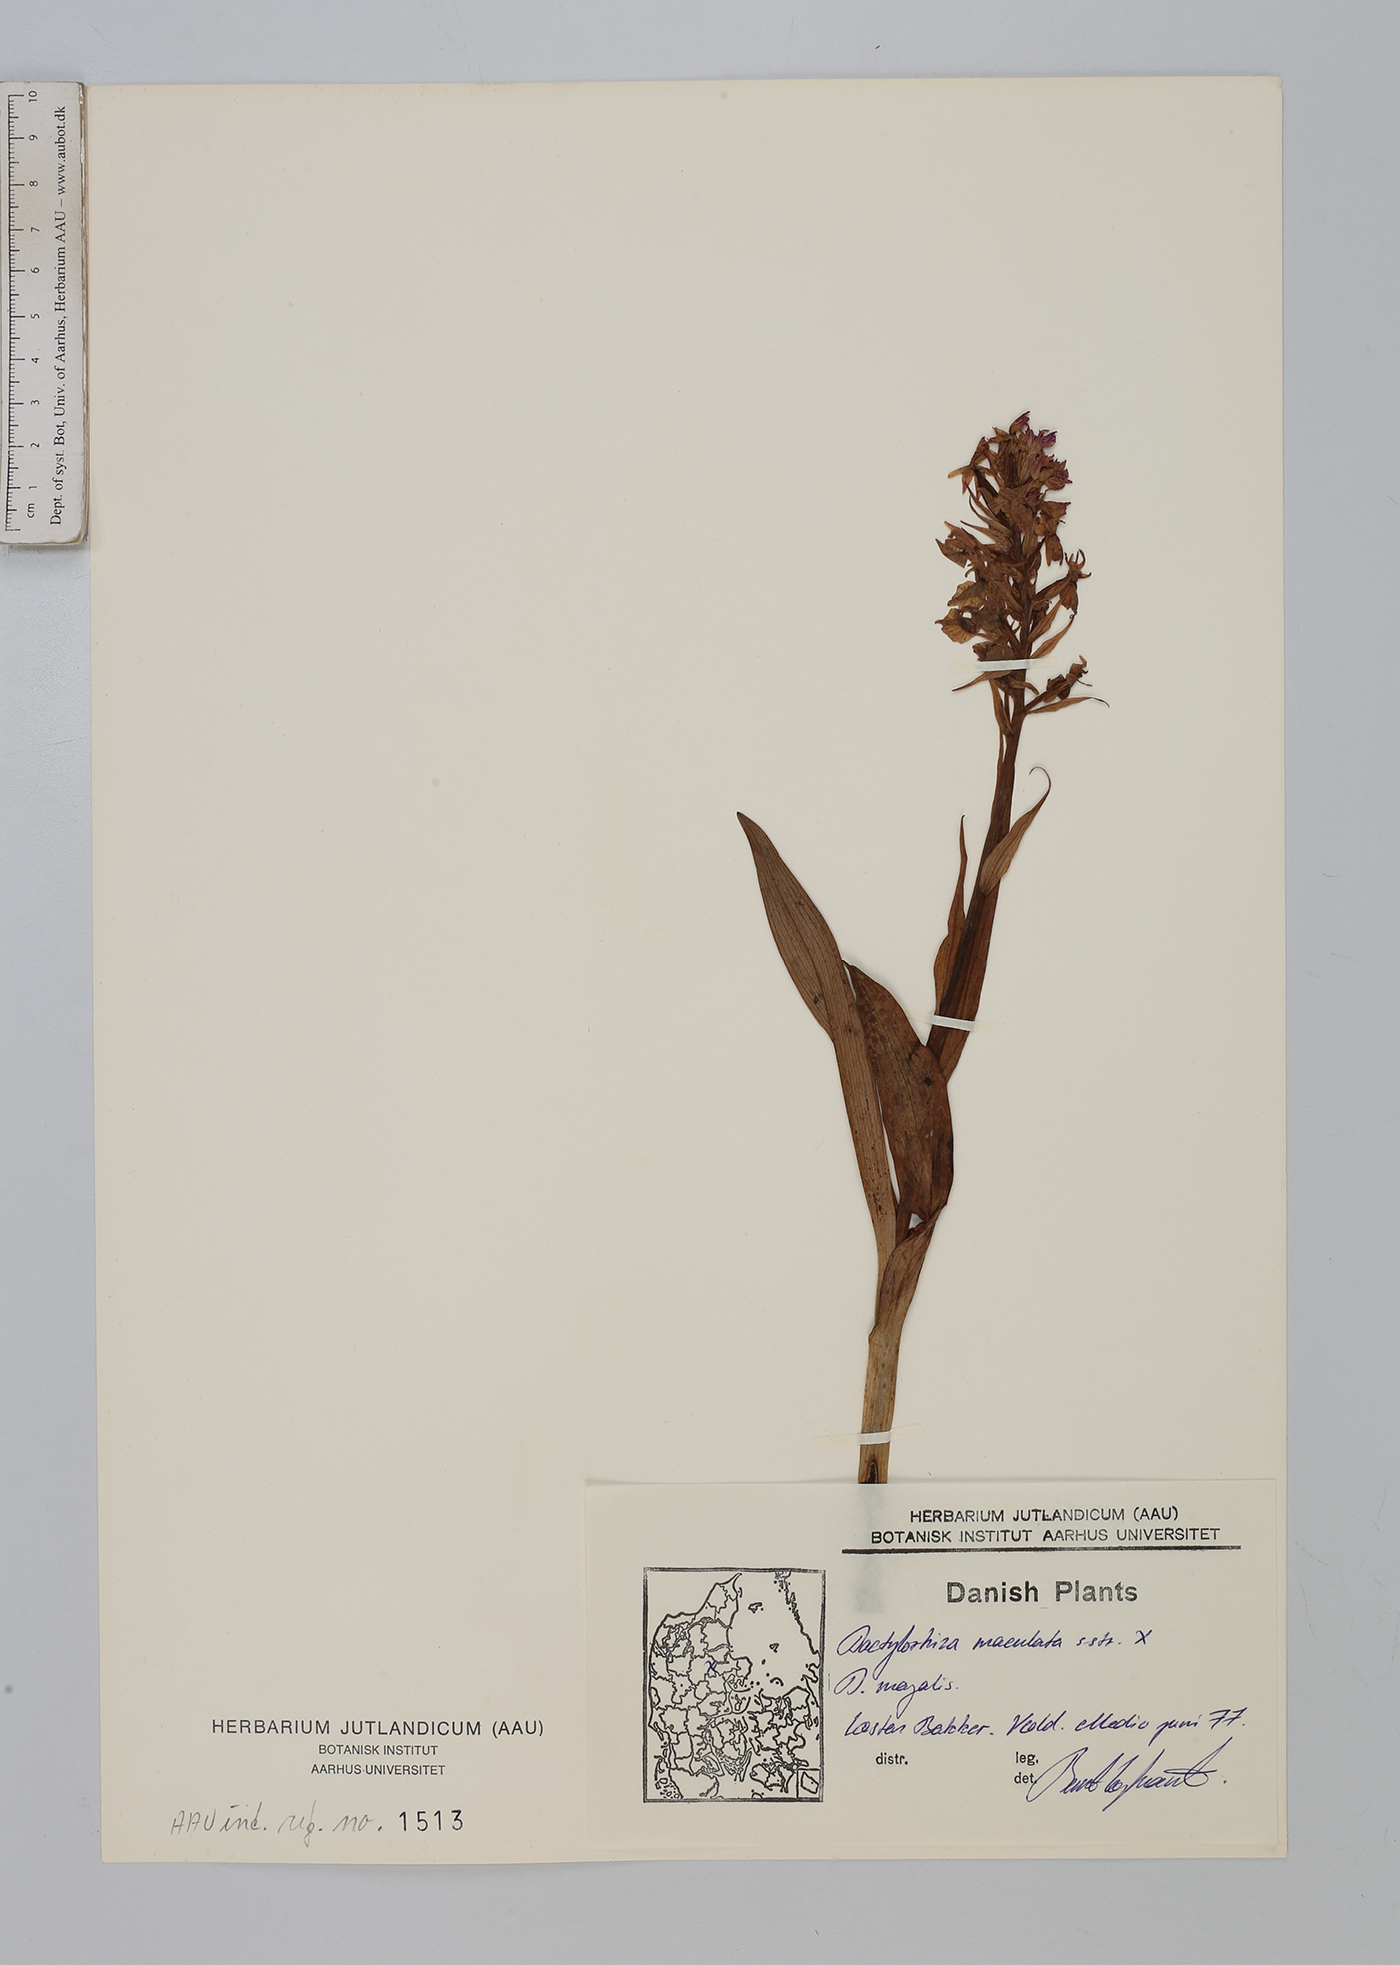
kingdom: Plantae
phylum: Tracheophyta
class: Liliopsida
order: Asparagales
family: Orchidaceae
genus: Dactylorhiza
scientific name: Dactylorhiza maculata
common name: Heath spotted-orchid
